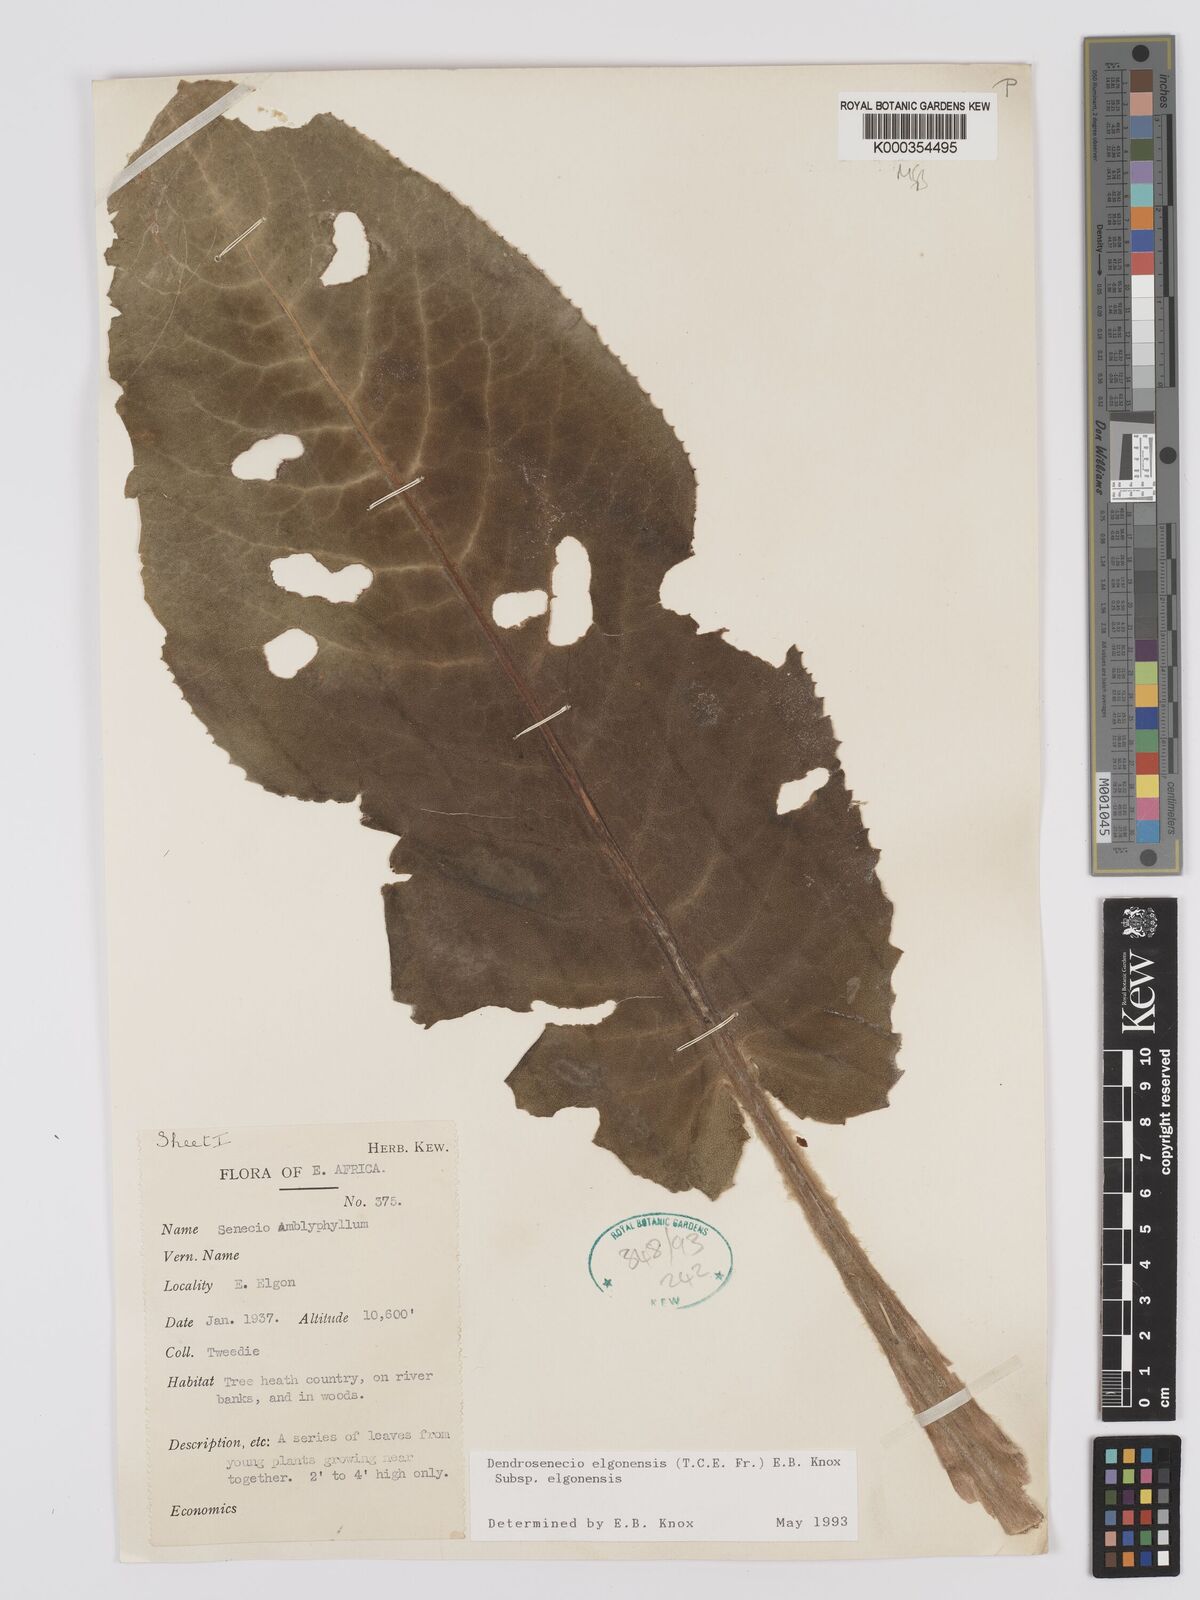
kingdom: Plantae
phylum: Tracheophyta
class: Magnoliopsida
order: Asterales
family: Asteraceae
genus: Dendrosenecio
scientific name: Dendrosenecio elgonensis
